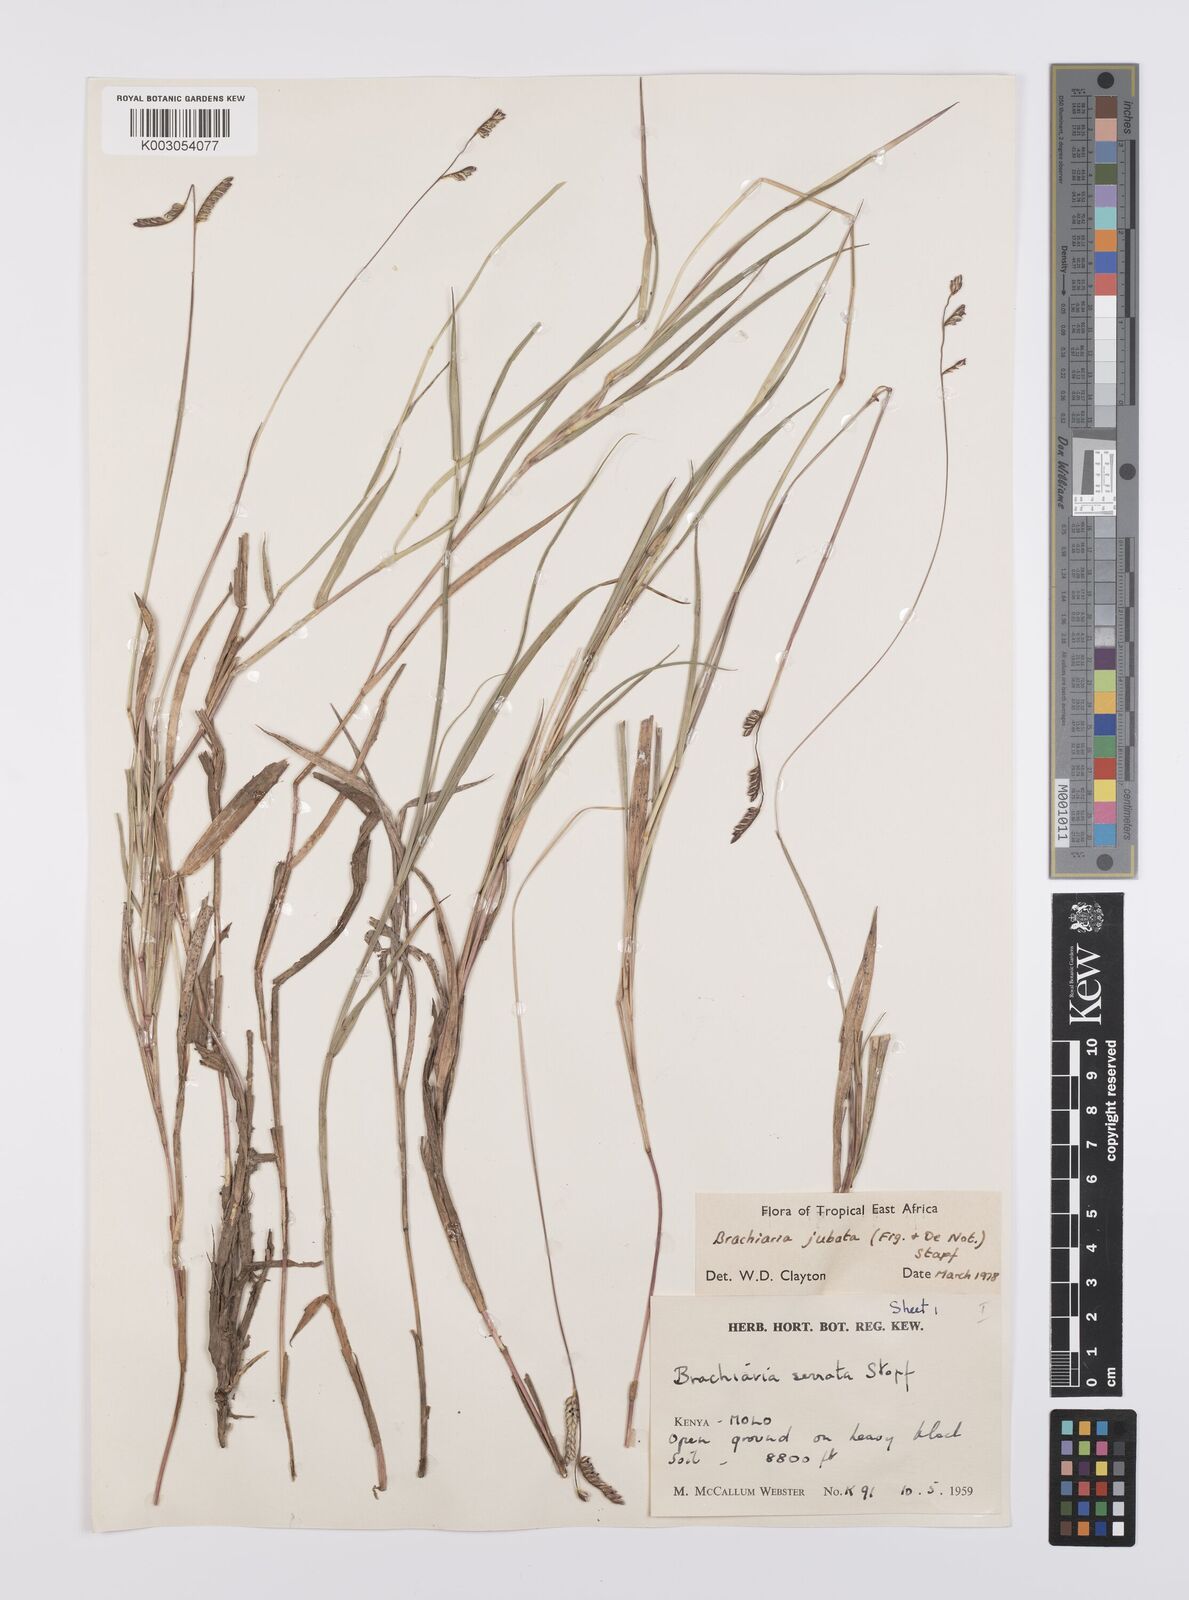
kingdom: Plantae
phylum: Tracheophyta
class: Liliopsida
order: Poales
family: Poaceae
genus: Urochloa
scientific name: Urochloa jubata
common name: Buffalograss
